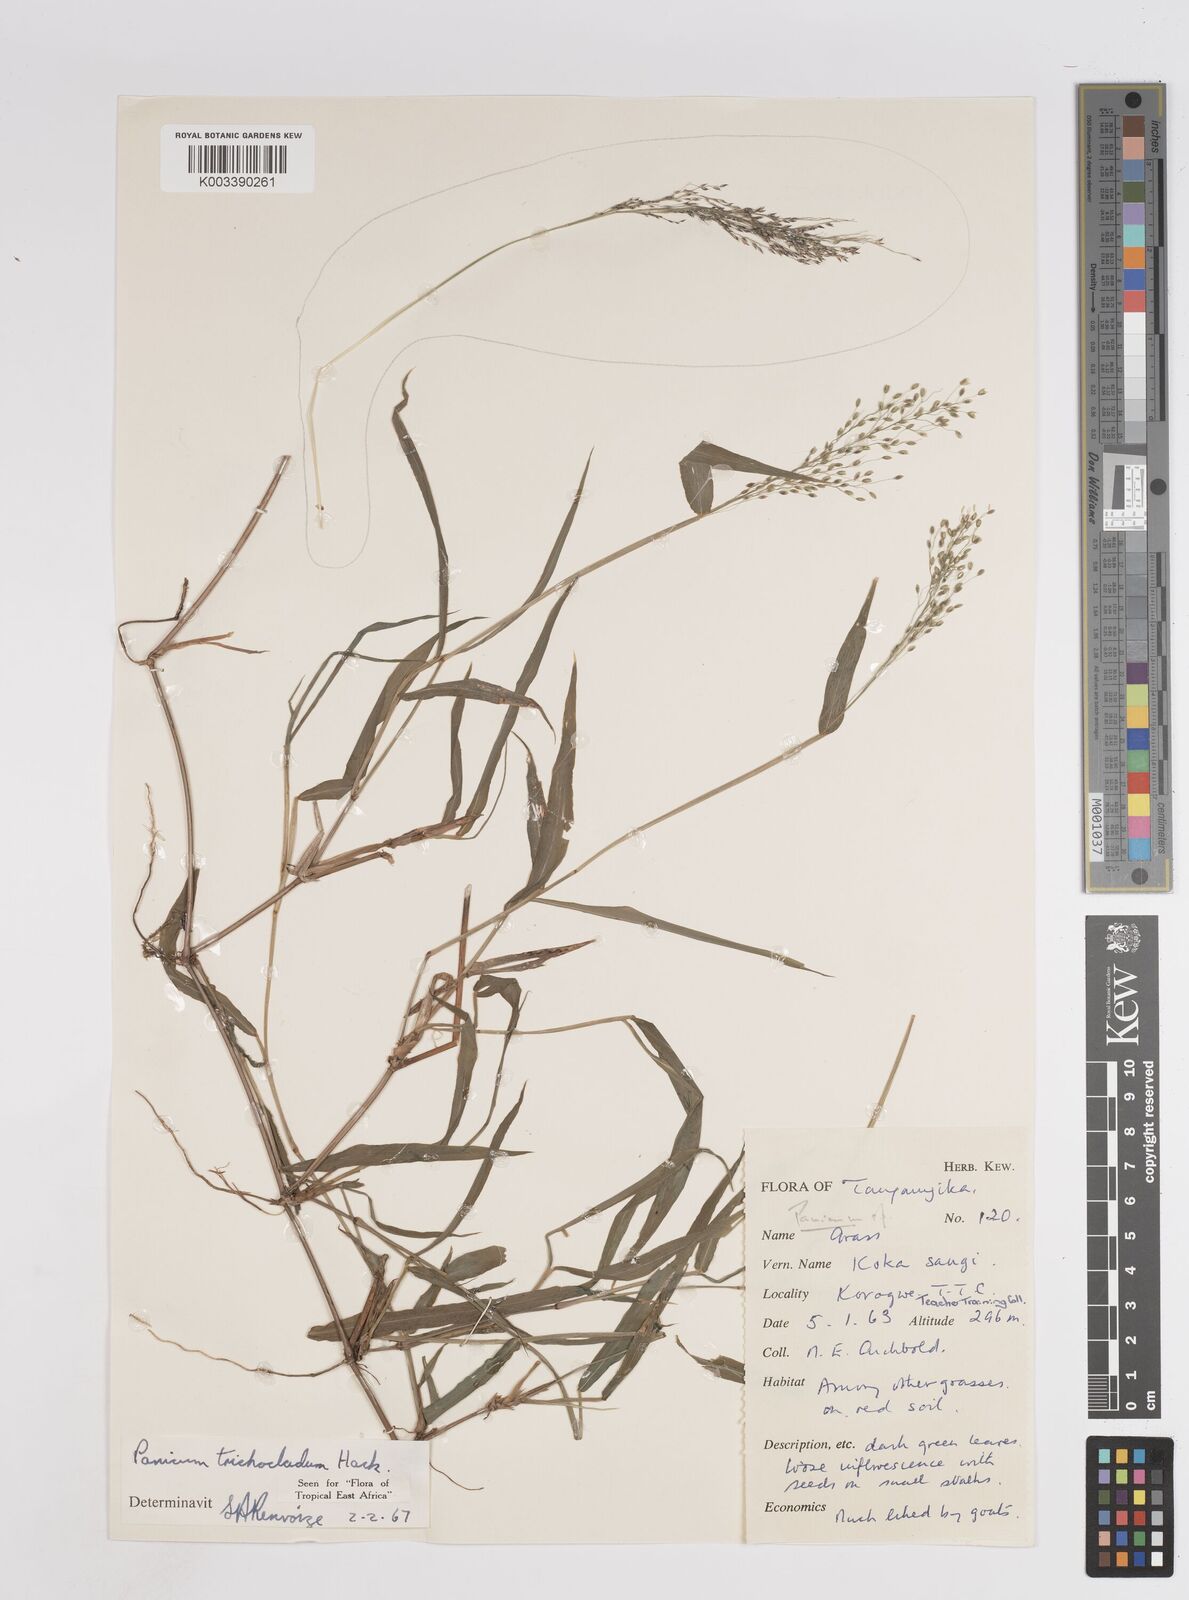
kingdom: Plantae
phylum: Tracheophyta
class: Liliopsida
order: Poales
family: Poaceae
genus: Panicum
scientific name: Panicum trichocladum
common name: Donkey grass
